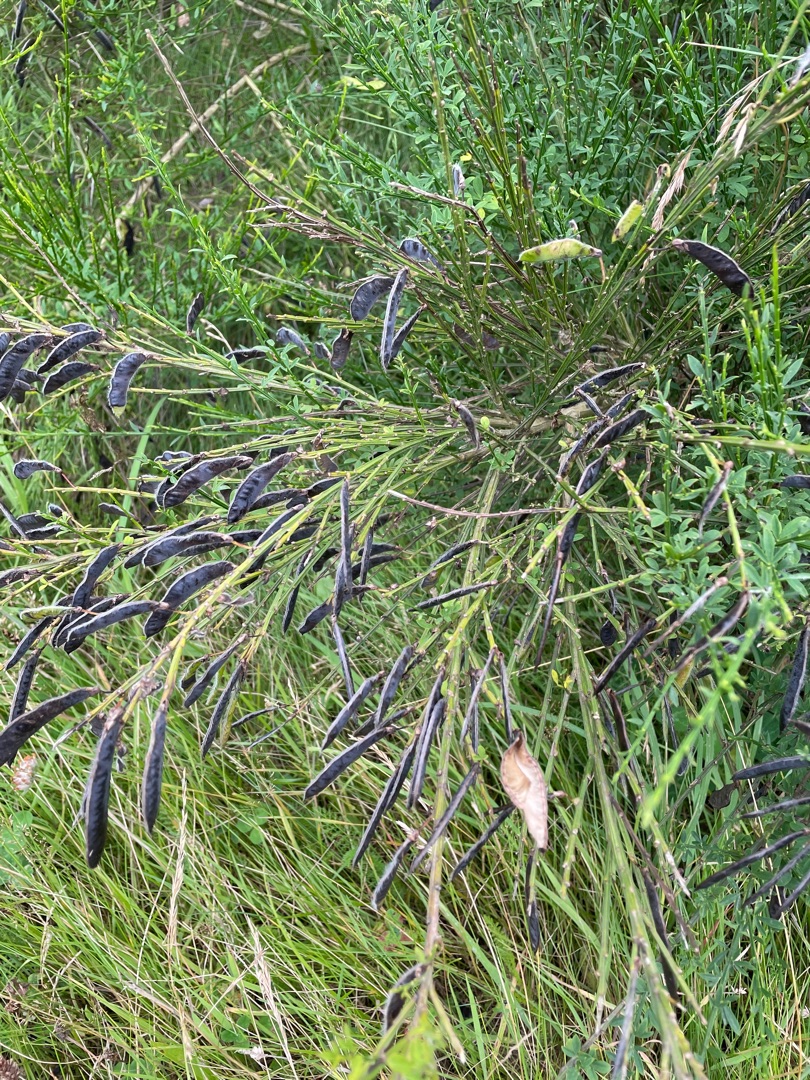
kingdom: Plantae
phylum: Tracheophyta
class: Magnoliopsida
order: Fabales
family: Fabaceae
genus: Cytisus
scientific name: Cytisus scoparius
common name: Almindelig gyvel
